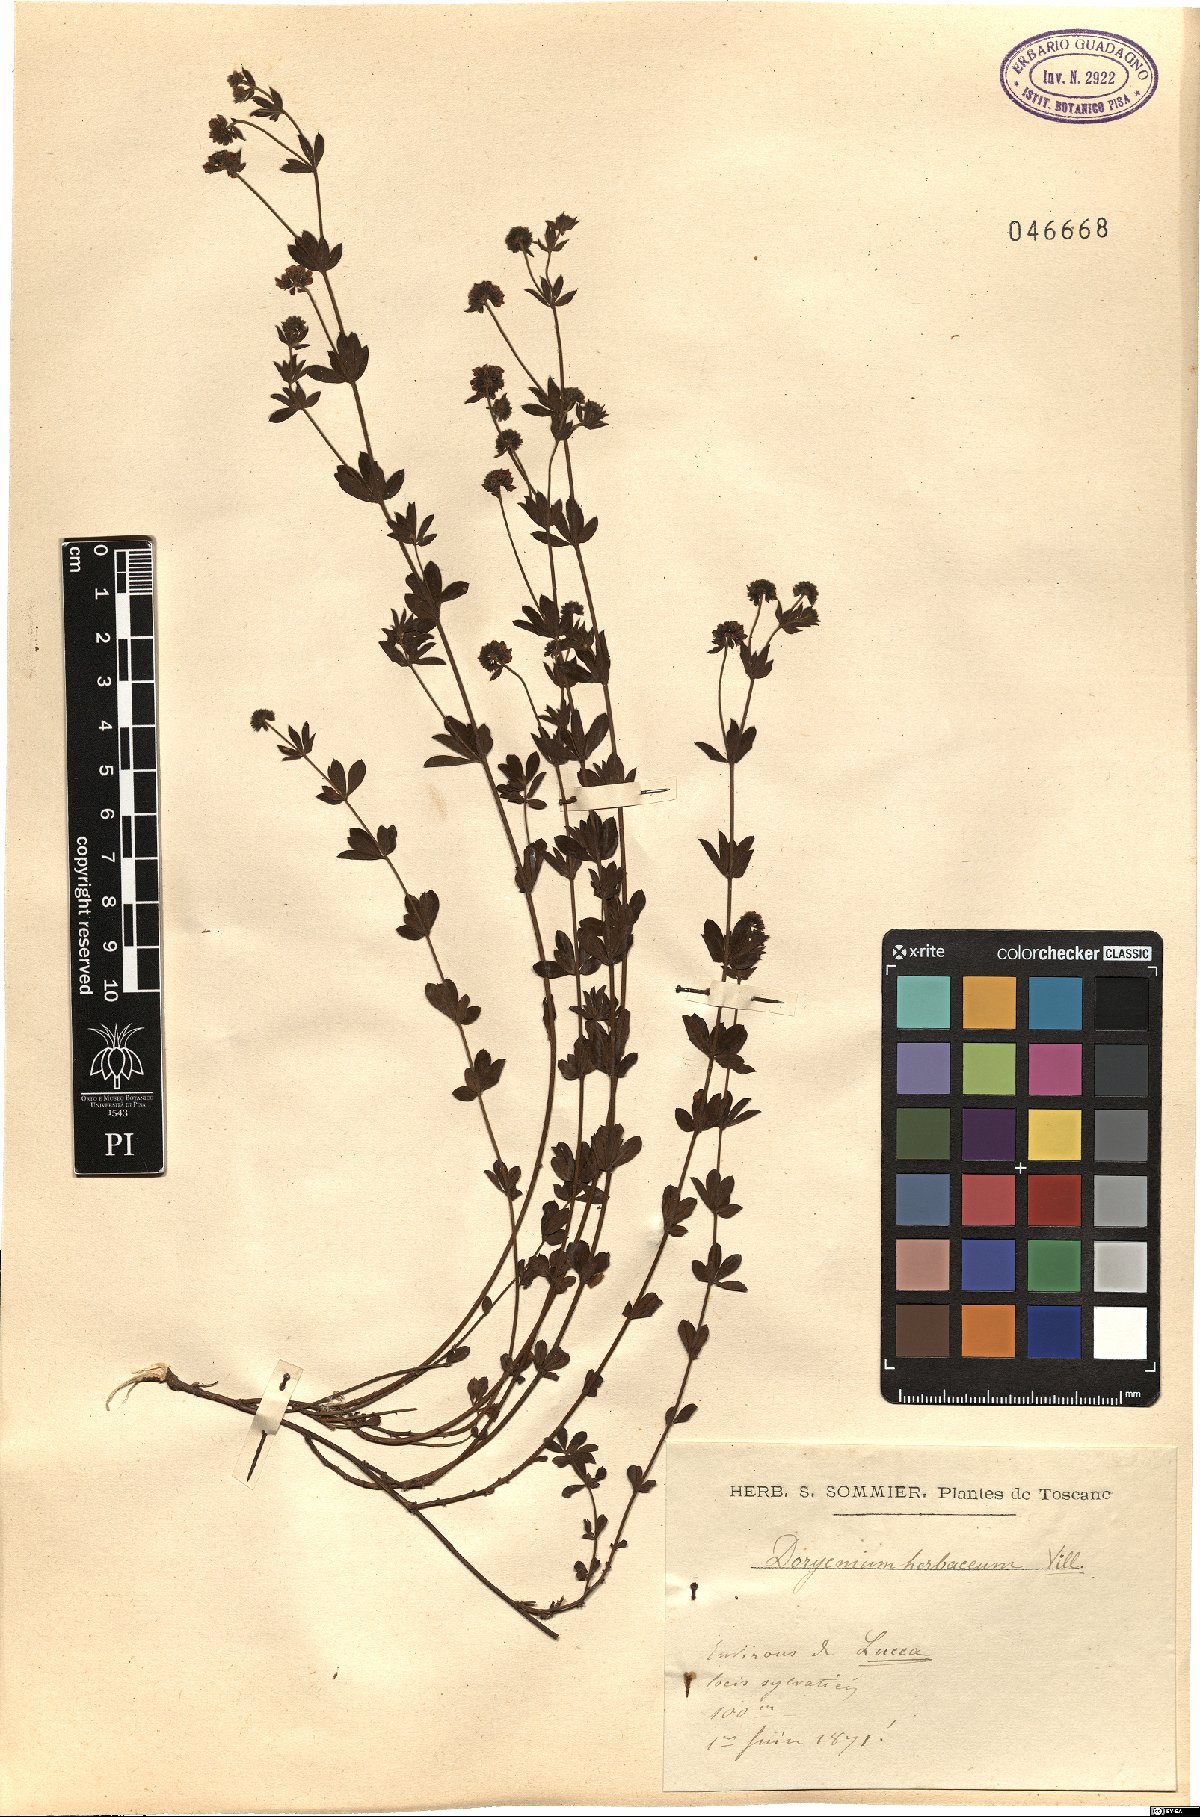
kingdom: Plantae
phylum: Tracheophyta
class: Magnoliopsida
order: Fabales
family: Fabaceae
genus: Lotus
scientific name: Lotus herbaceus
